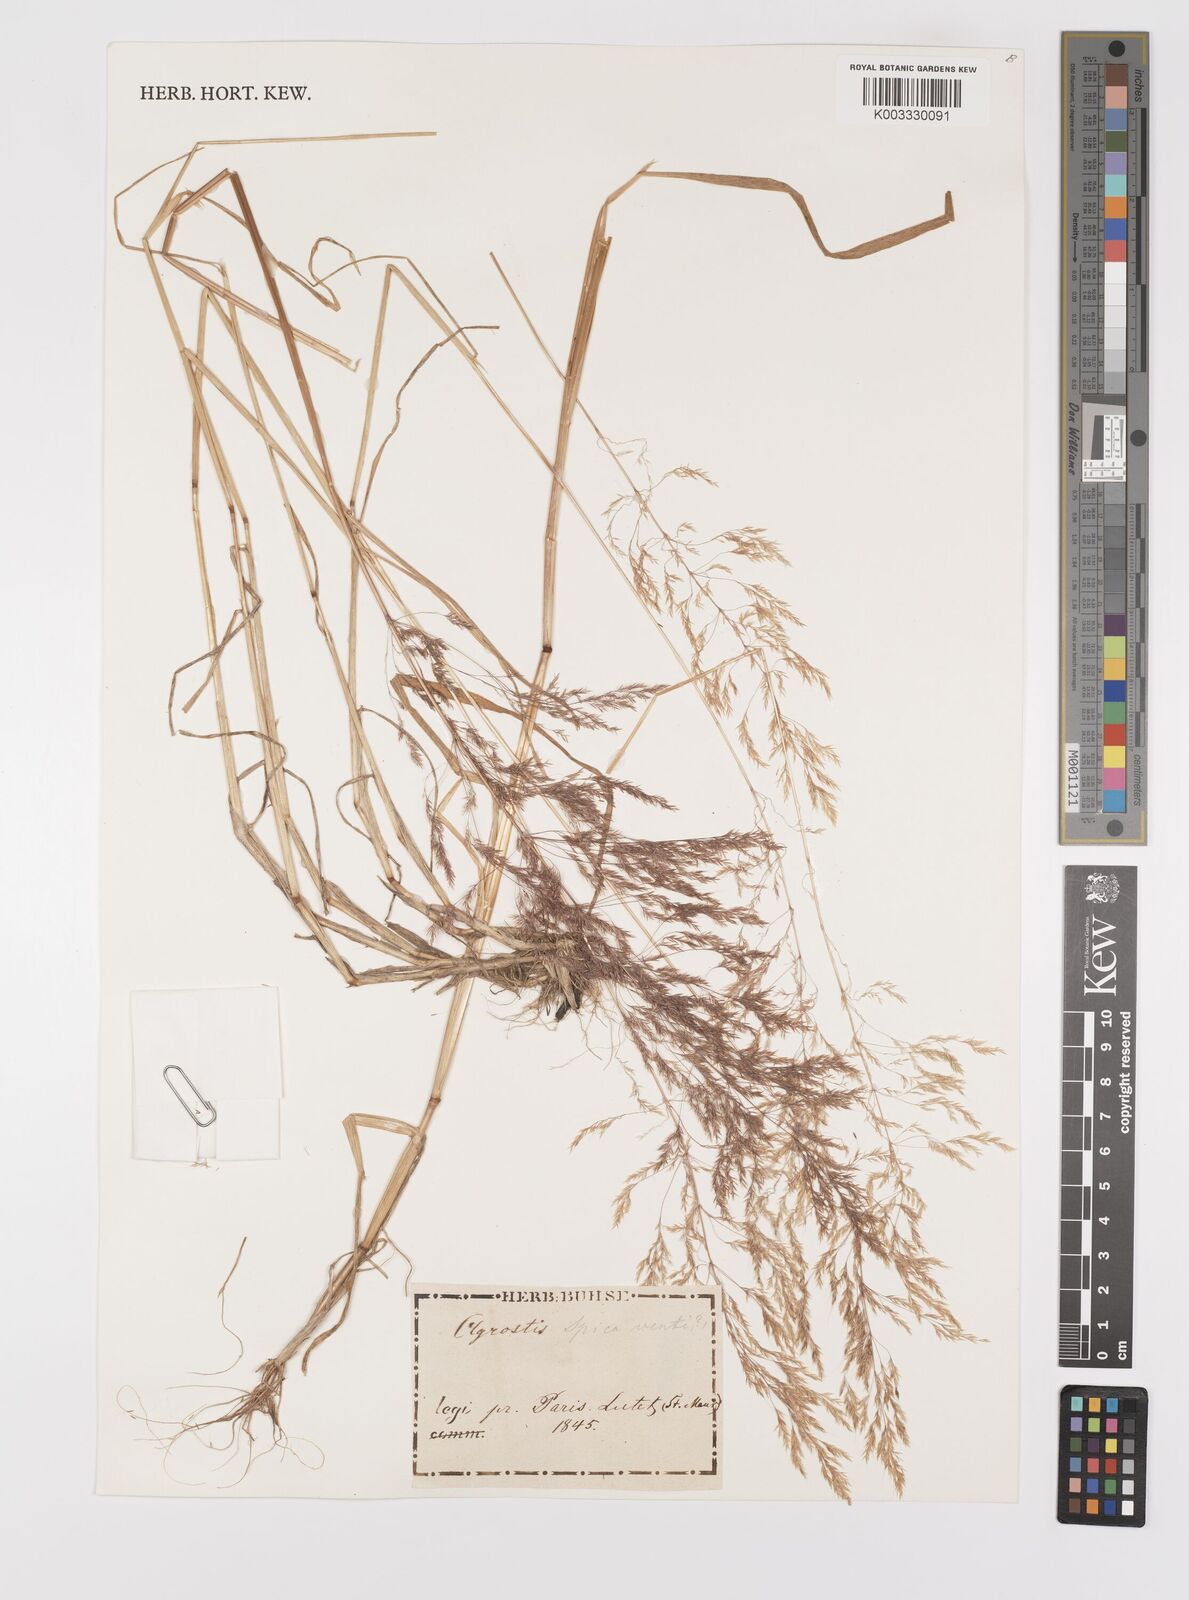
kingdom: Plantae
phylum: Tracheophyta
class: Liliopsida
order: Poales
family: Poaceae
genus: Apera
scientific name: Apera spica-venti
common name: Loose silky-bent
